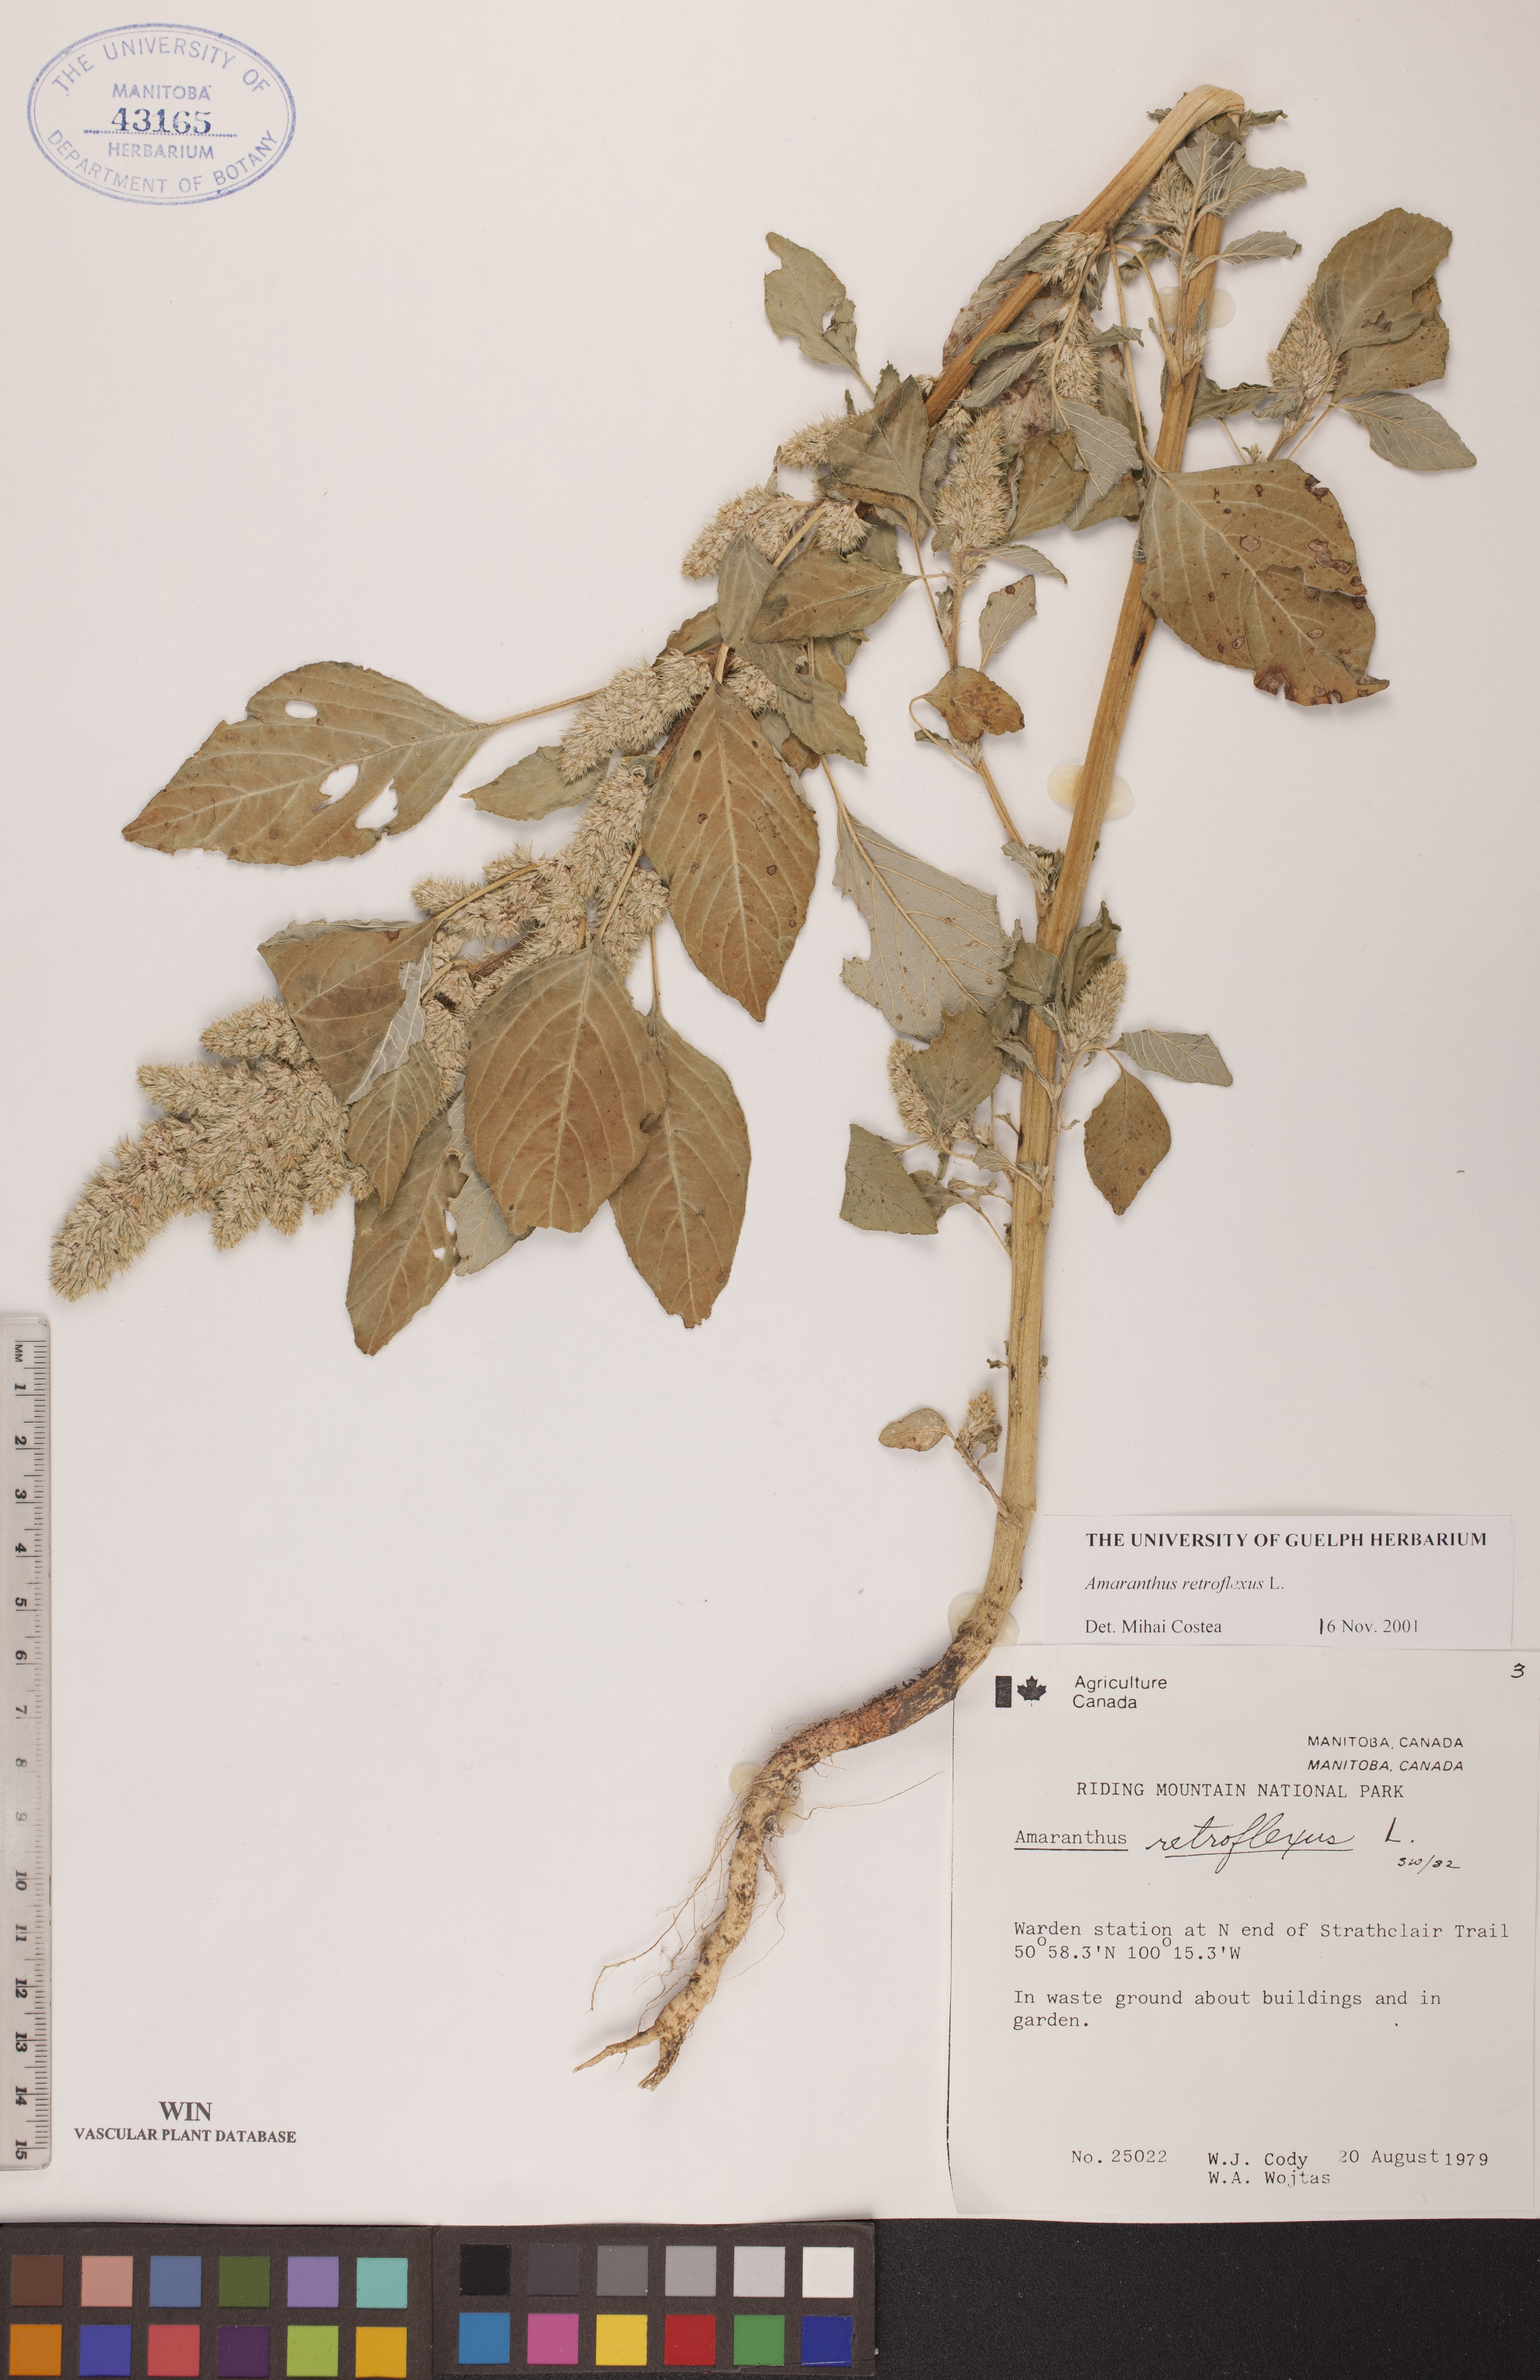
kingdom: Plantae
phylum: Tracheophyta
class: Magnoliopsida
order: Caryophyllales
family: Amaranthaceae
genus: Amaranthus
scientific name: Amaranthus retroflexus
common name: Redroot amaranth
